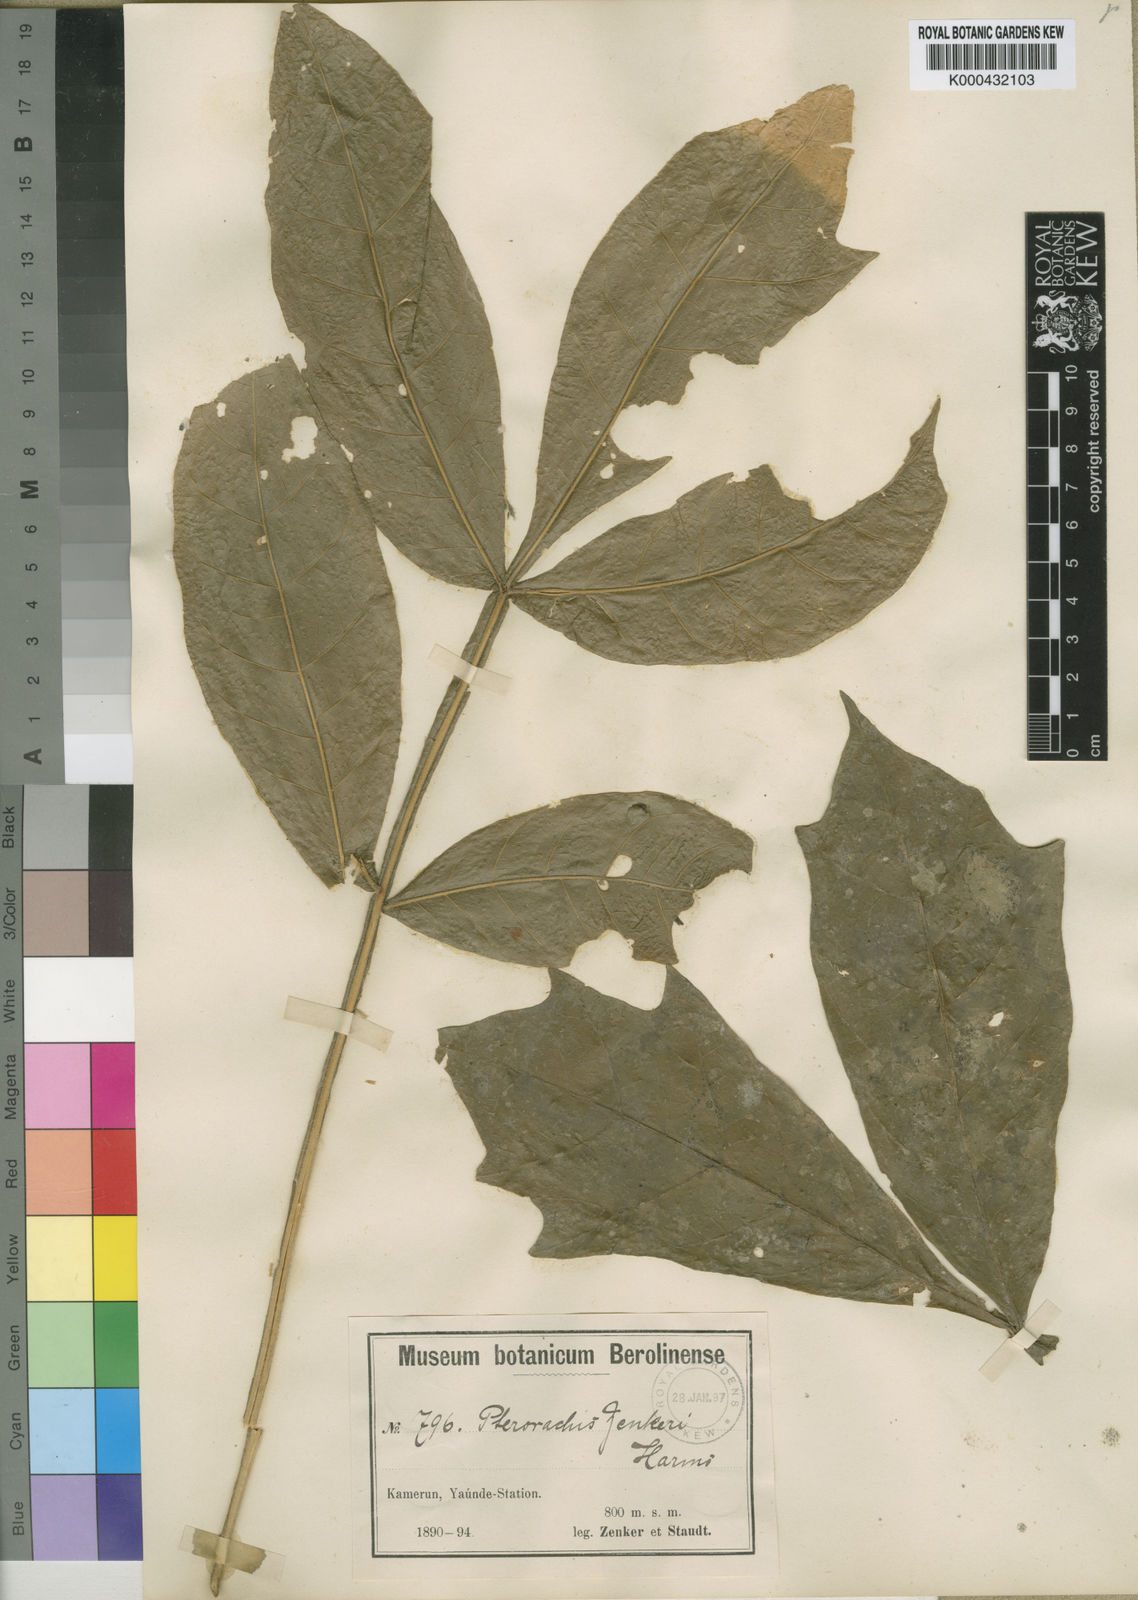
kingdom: Plantae
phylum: Tracheophyta
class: Magnoliopsida
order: Sapindales
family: Meliaceae
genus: Pterorhachis
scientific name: Pterorhachis zenkeri
